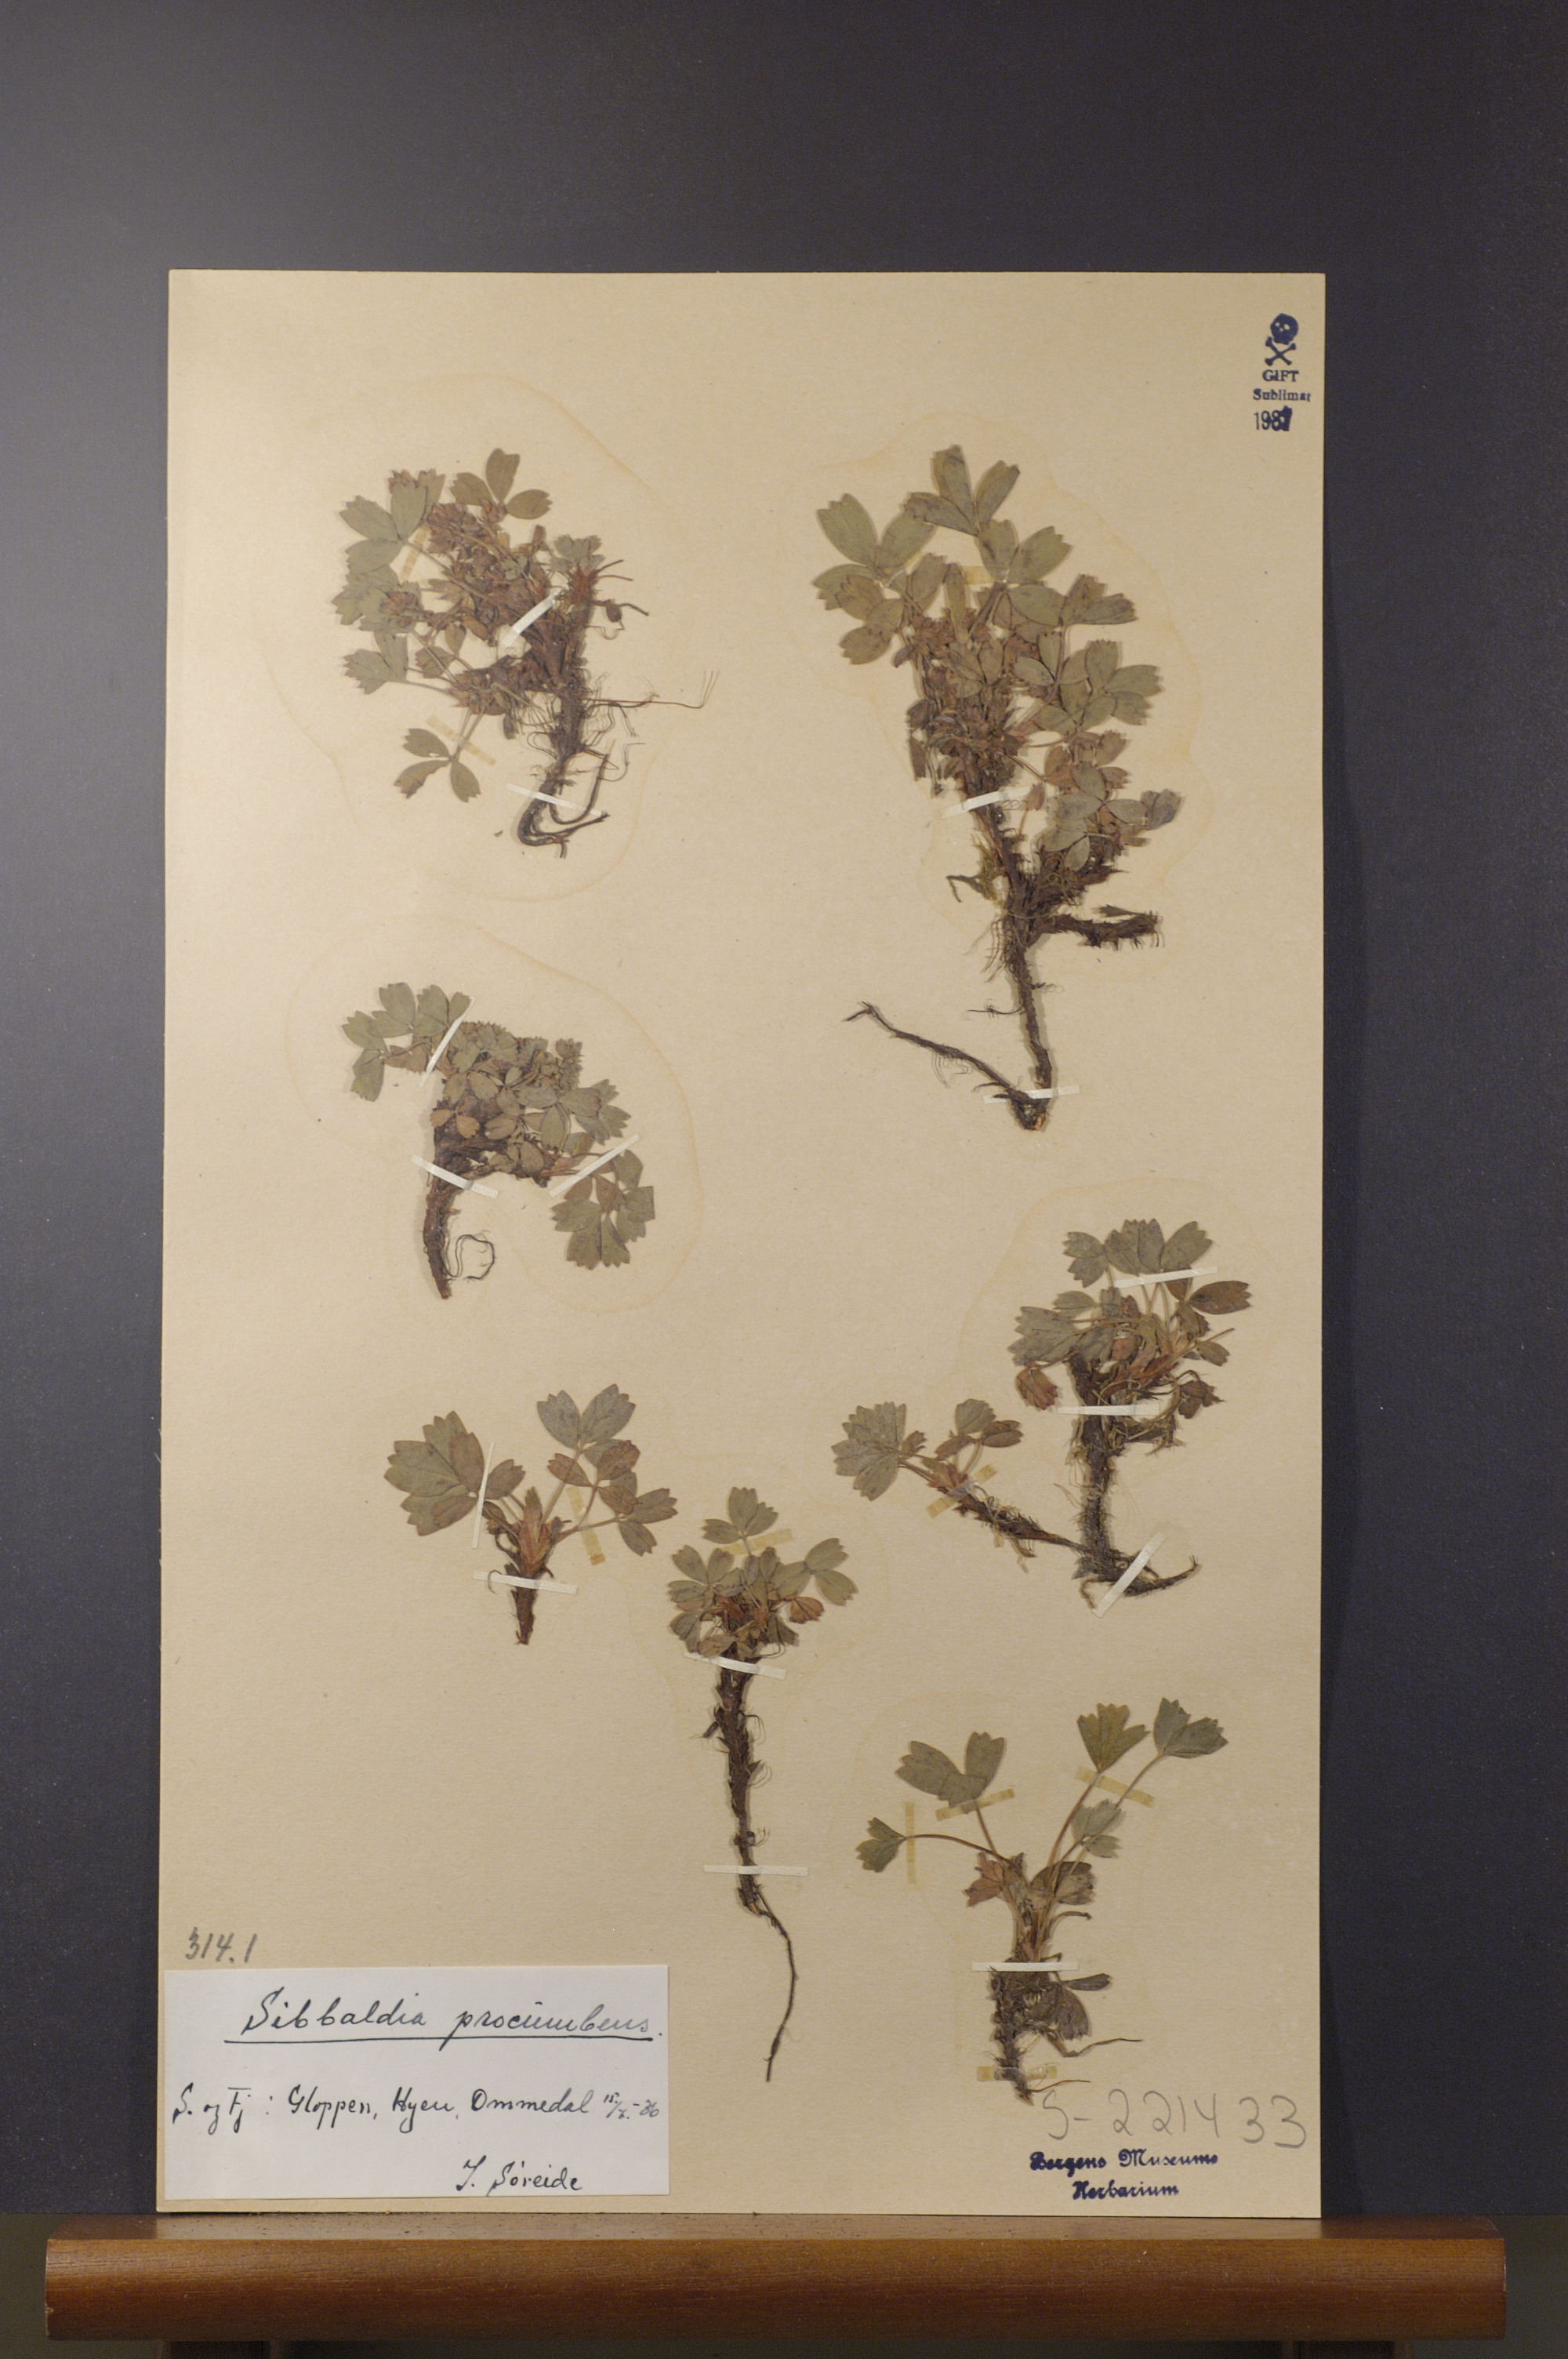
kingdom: Plantae
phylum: Tracheophyta
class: Magnoliopsida
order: Rosales
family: Rosaceae
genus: Sibbaldia
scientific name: Sibbaldia procumbens
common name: Creeping sibbaldia
